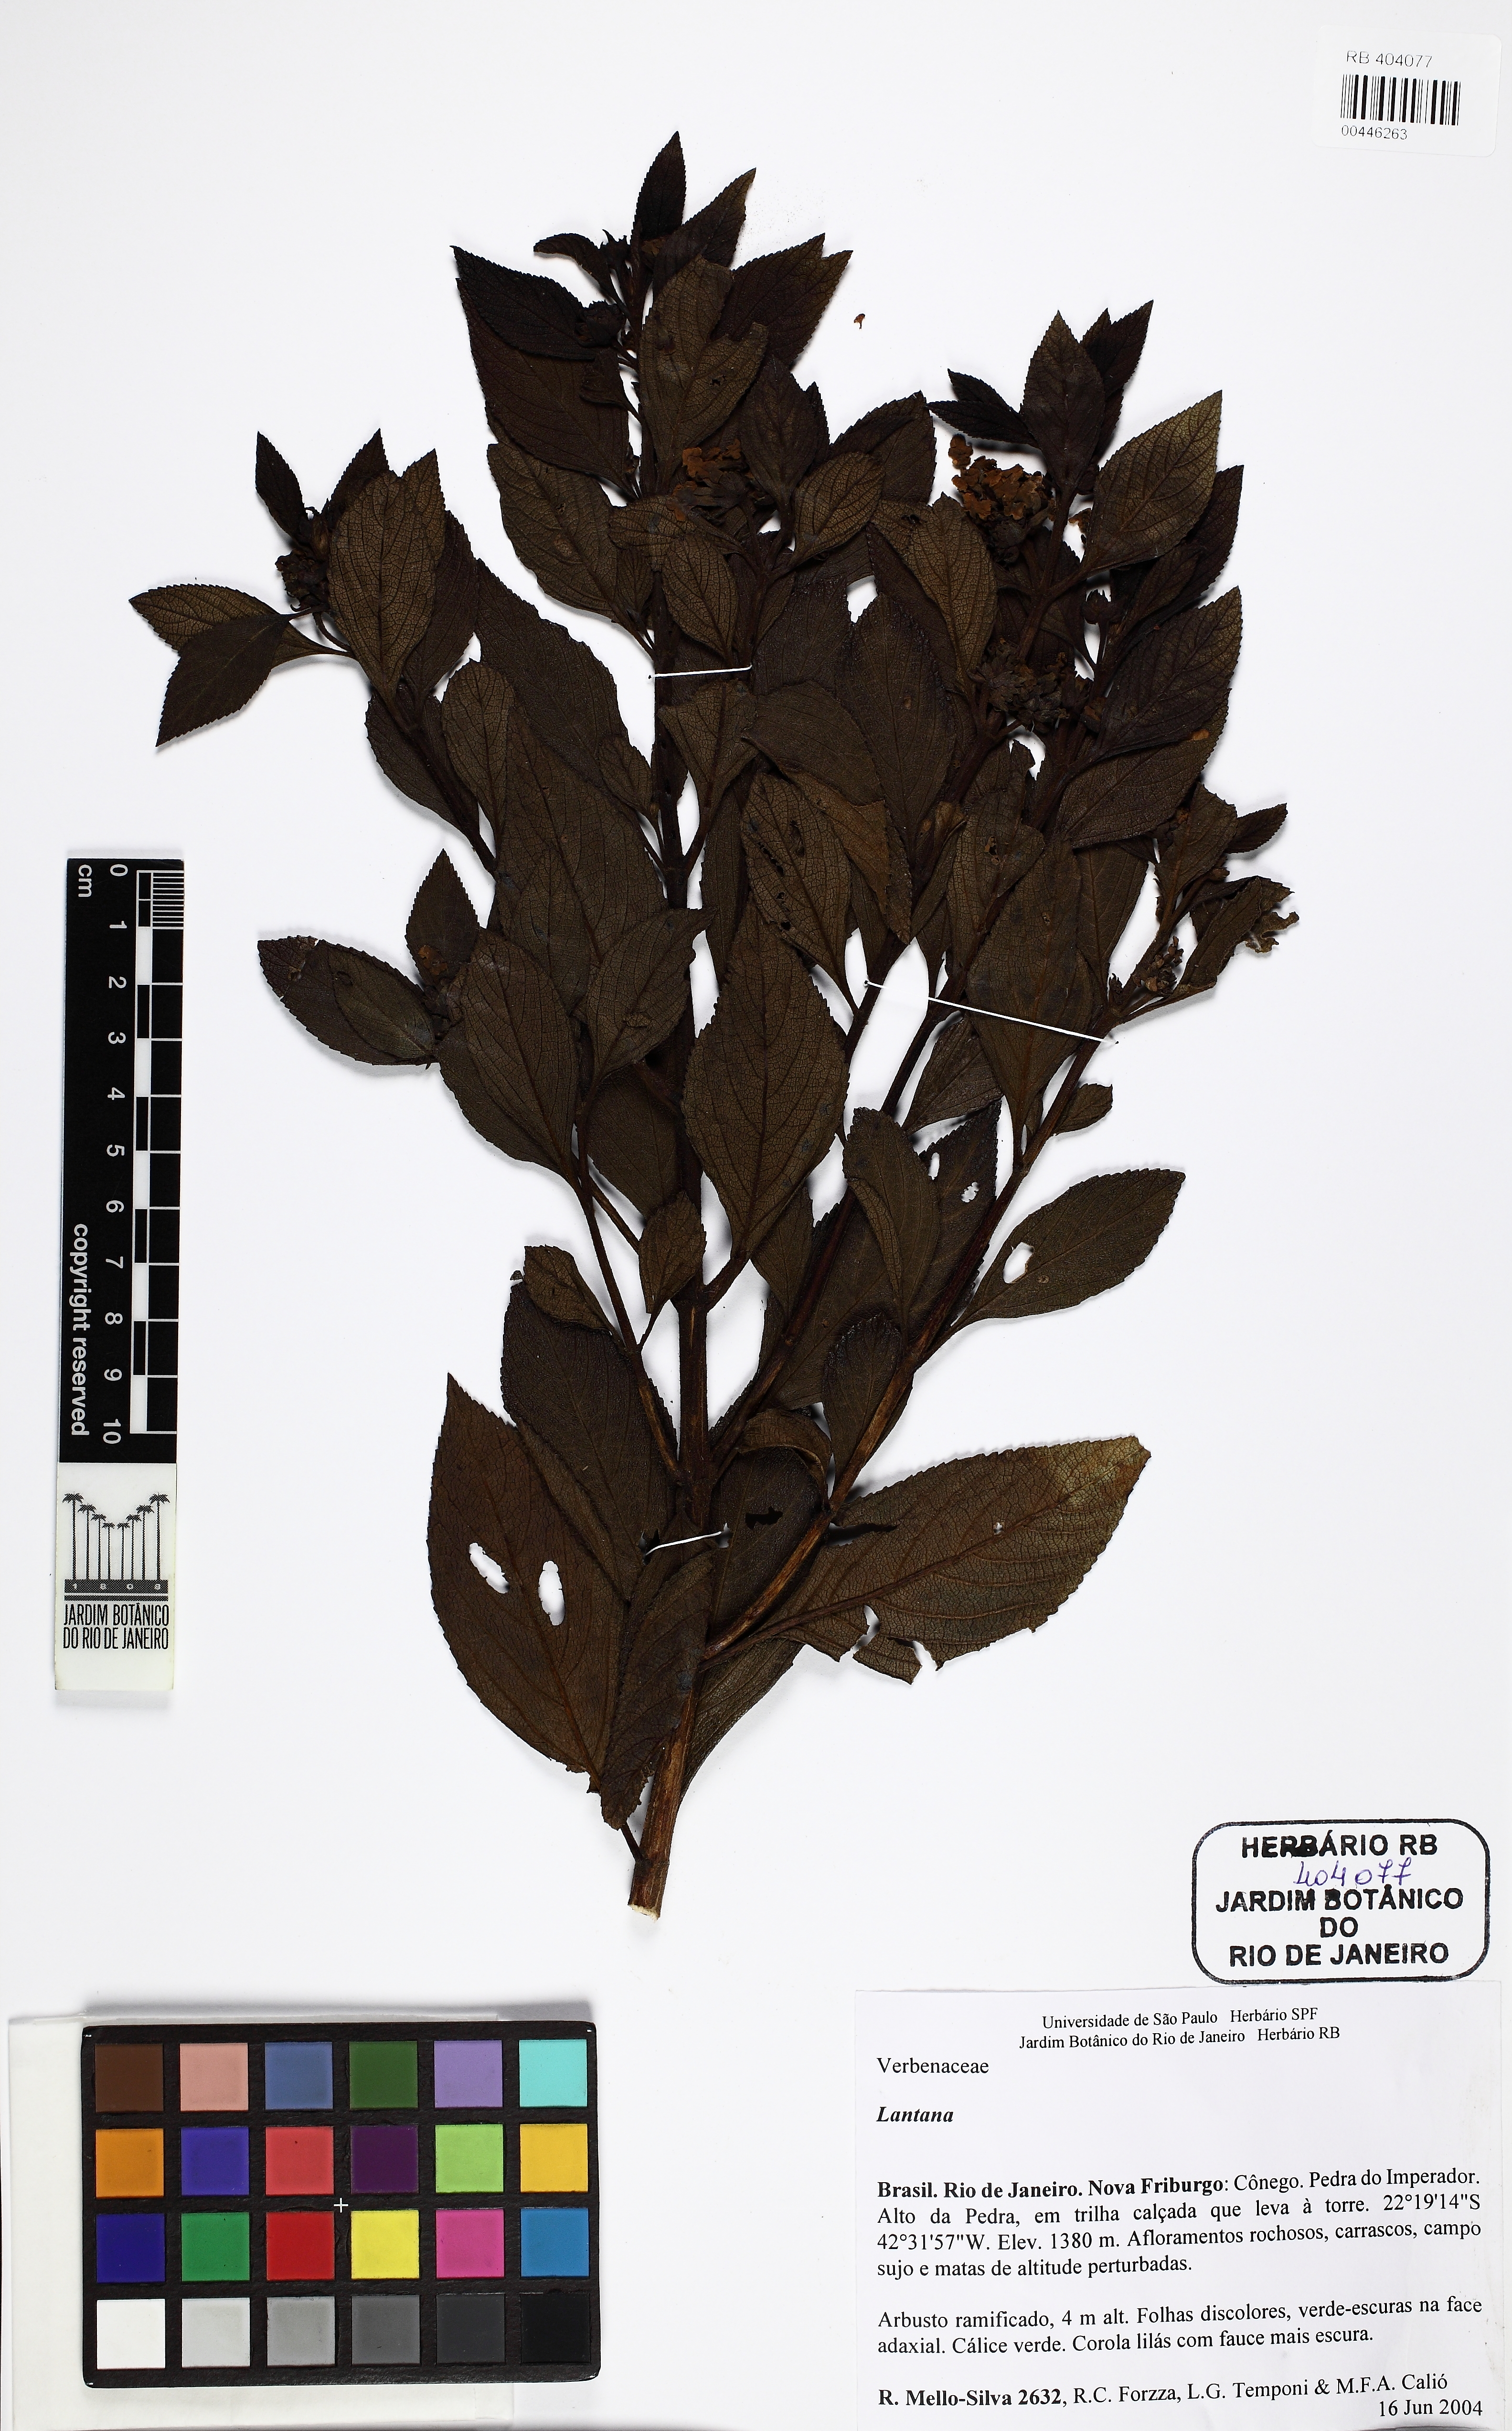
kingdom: Plantae
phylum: Tracheophyta
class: Magnoliopsida
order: Lamiales
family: Verbenaceae
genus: Lantana
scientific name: Lantana
